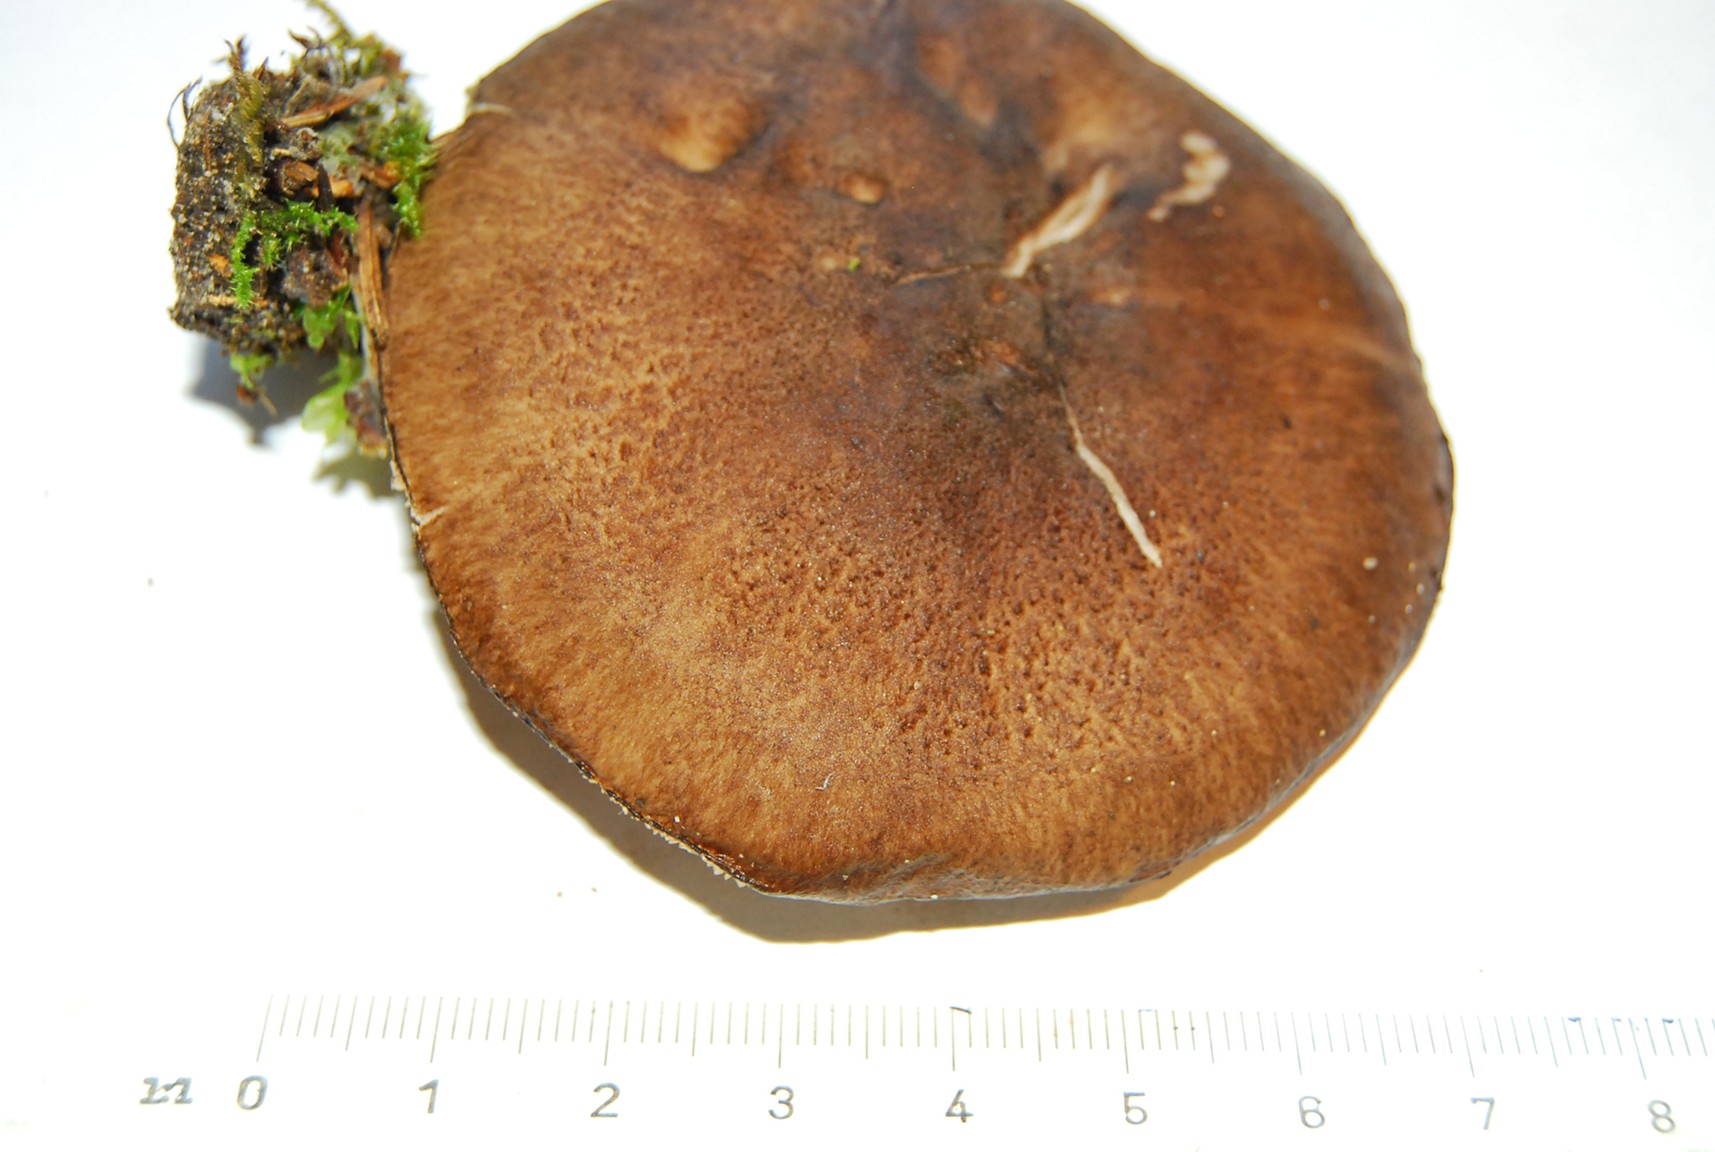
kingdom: Fungi
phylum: Basidiomycota
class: Agaricomycetes
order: Agaricales
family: Pluteaceae
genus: Pluteus
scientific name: Pluteus atromarginatus
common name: sortrandet skærmhat
